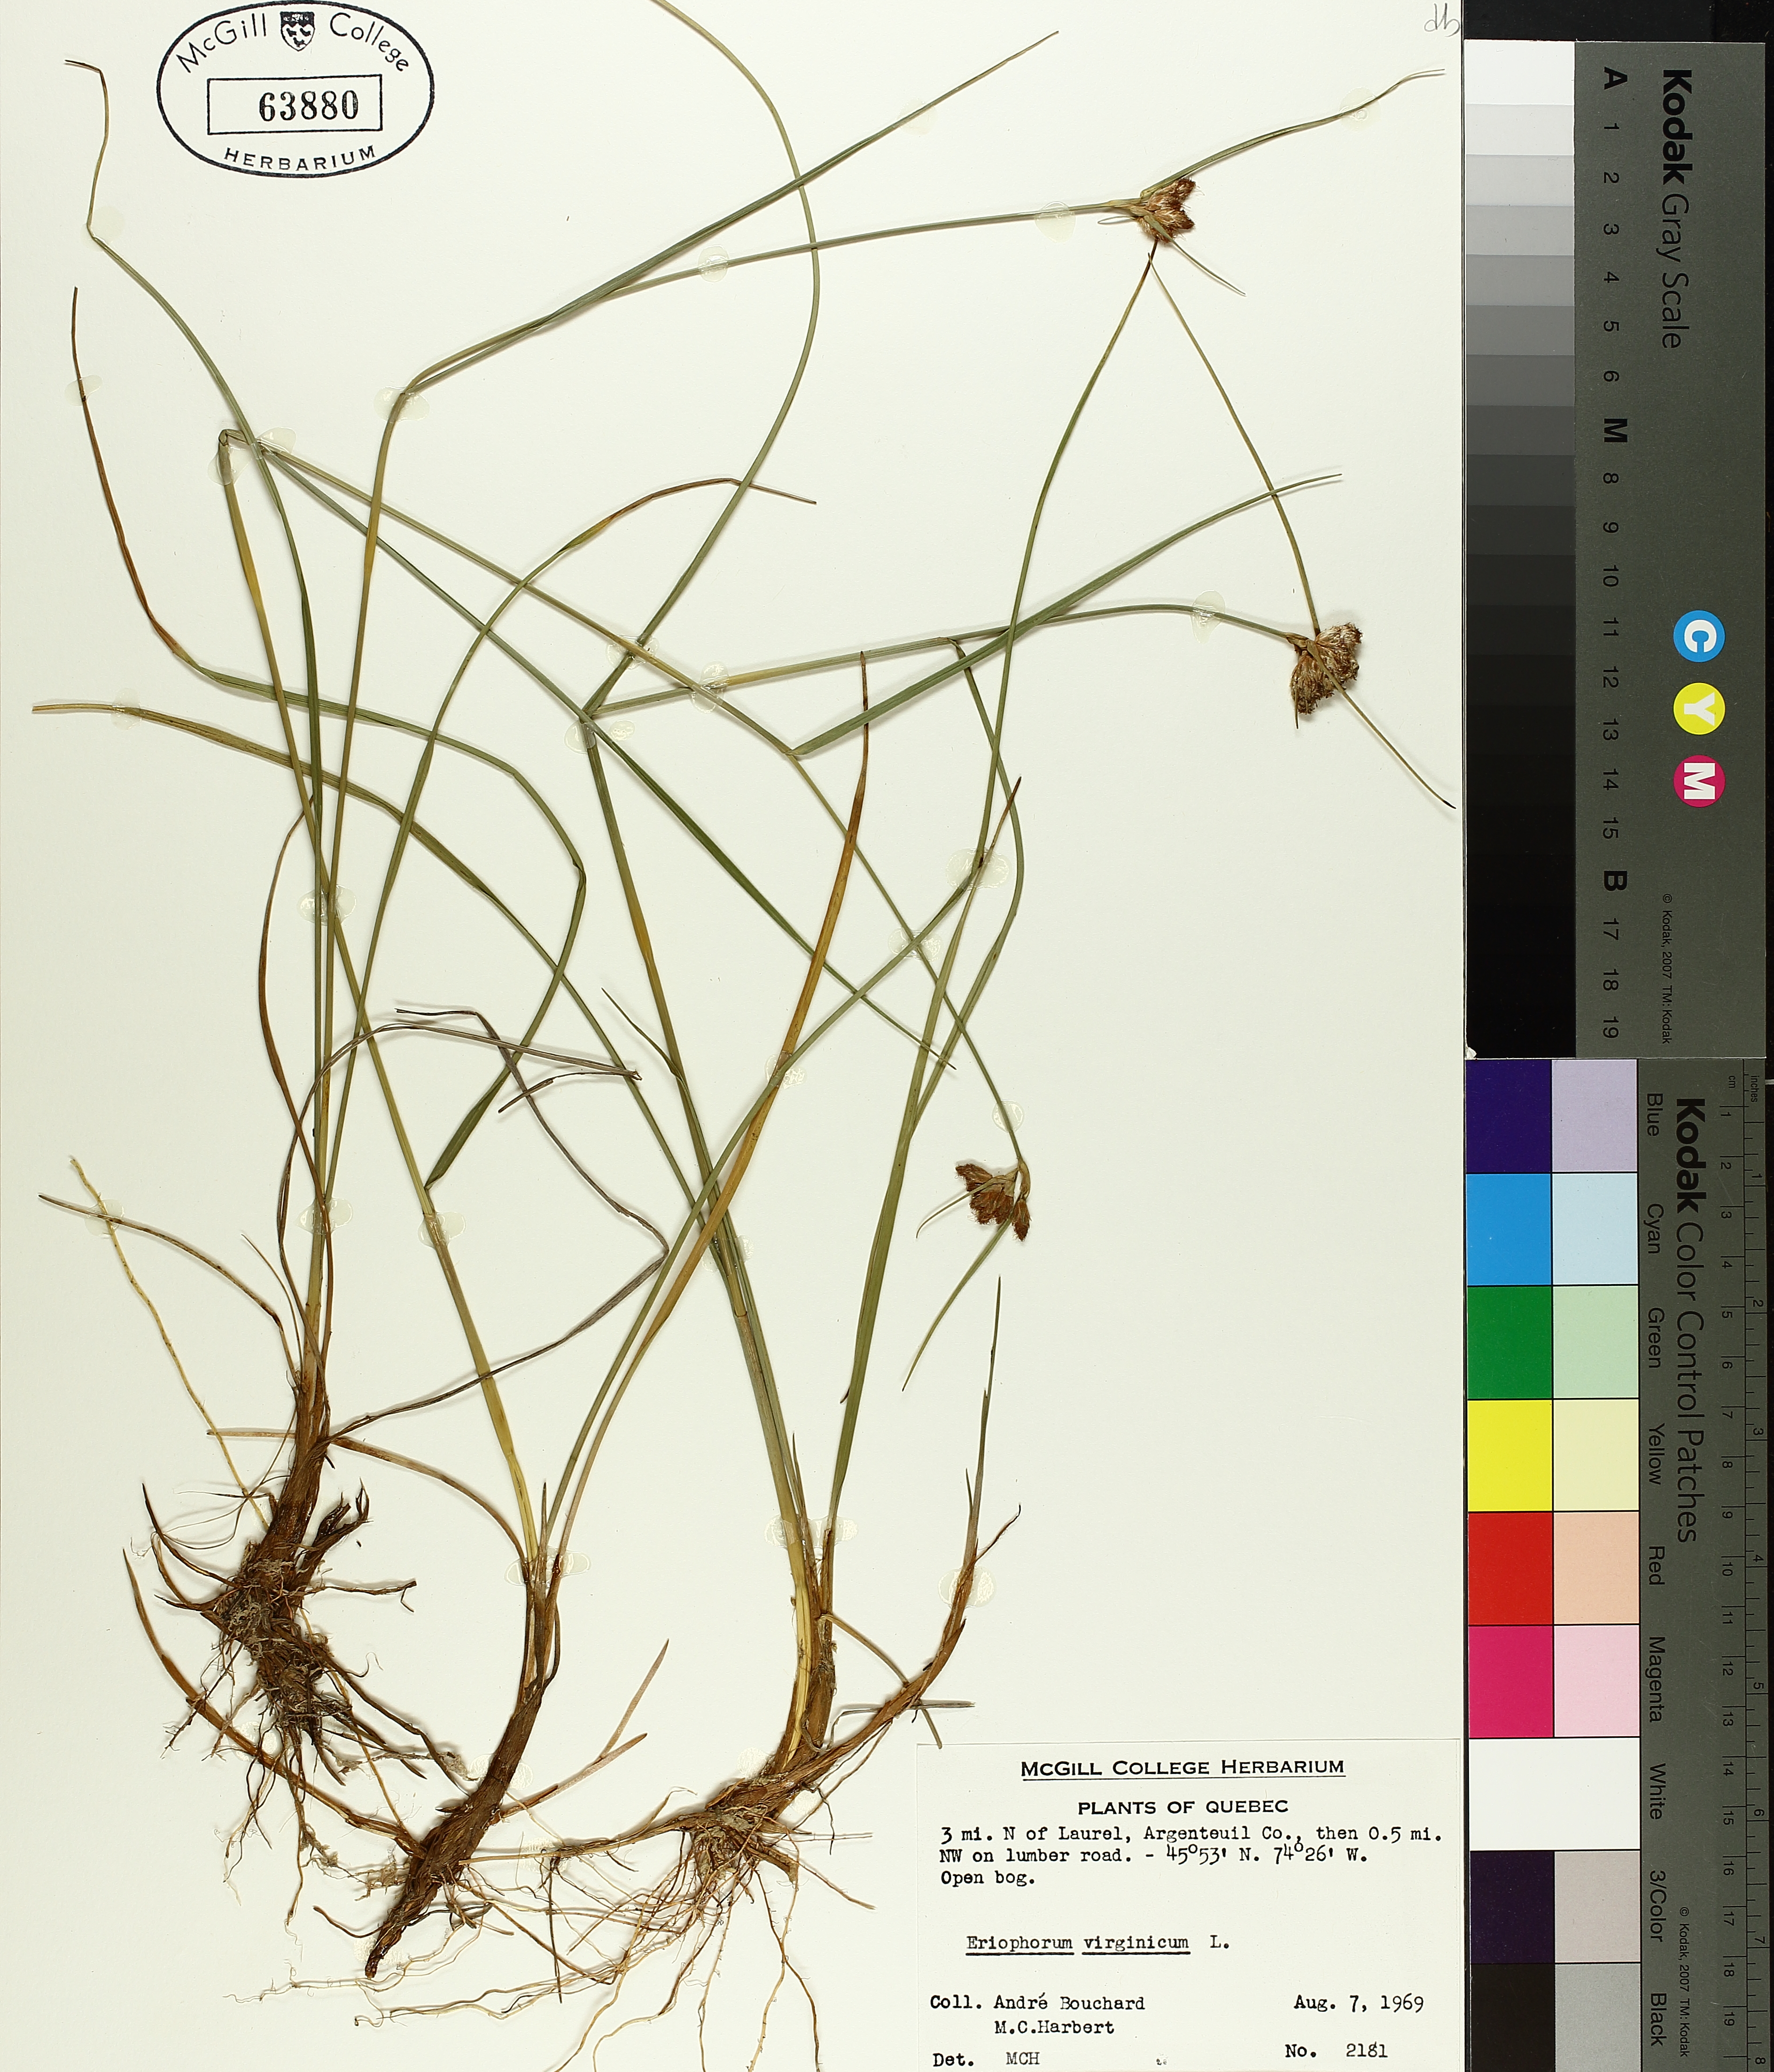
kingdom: Plantae
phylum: Tracheophyta
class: Liliopsida
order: Poales
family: Cyperaceae
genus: Eriophorum
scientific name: Eriophorum virginicum
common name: Tawny cottongrass
